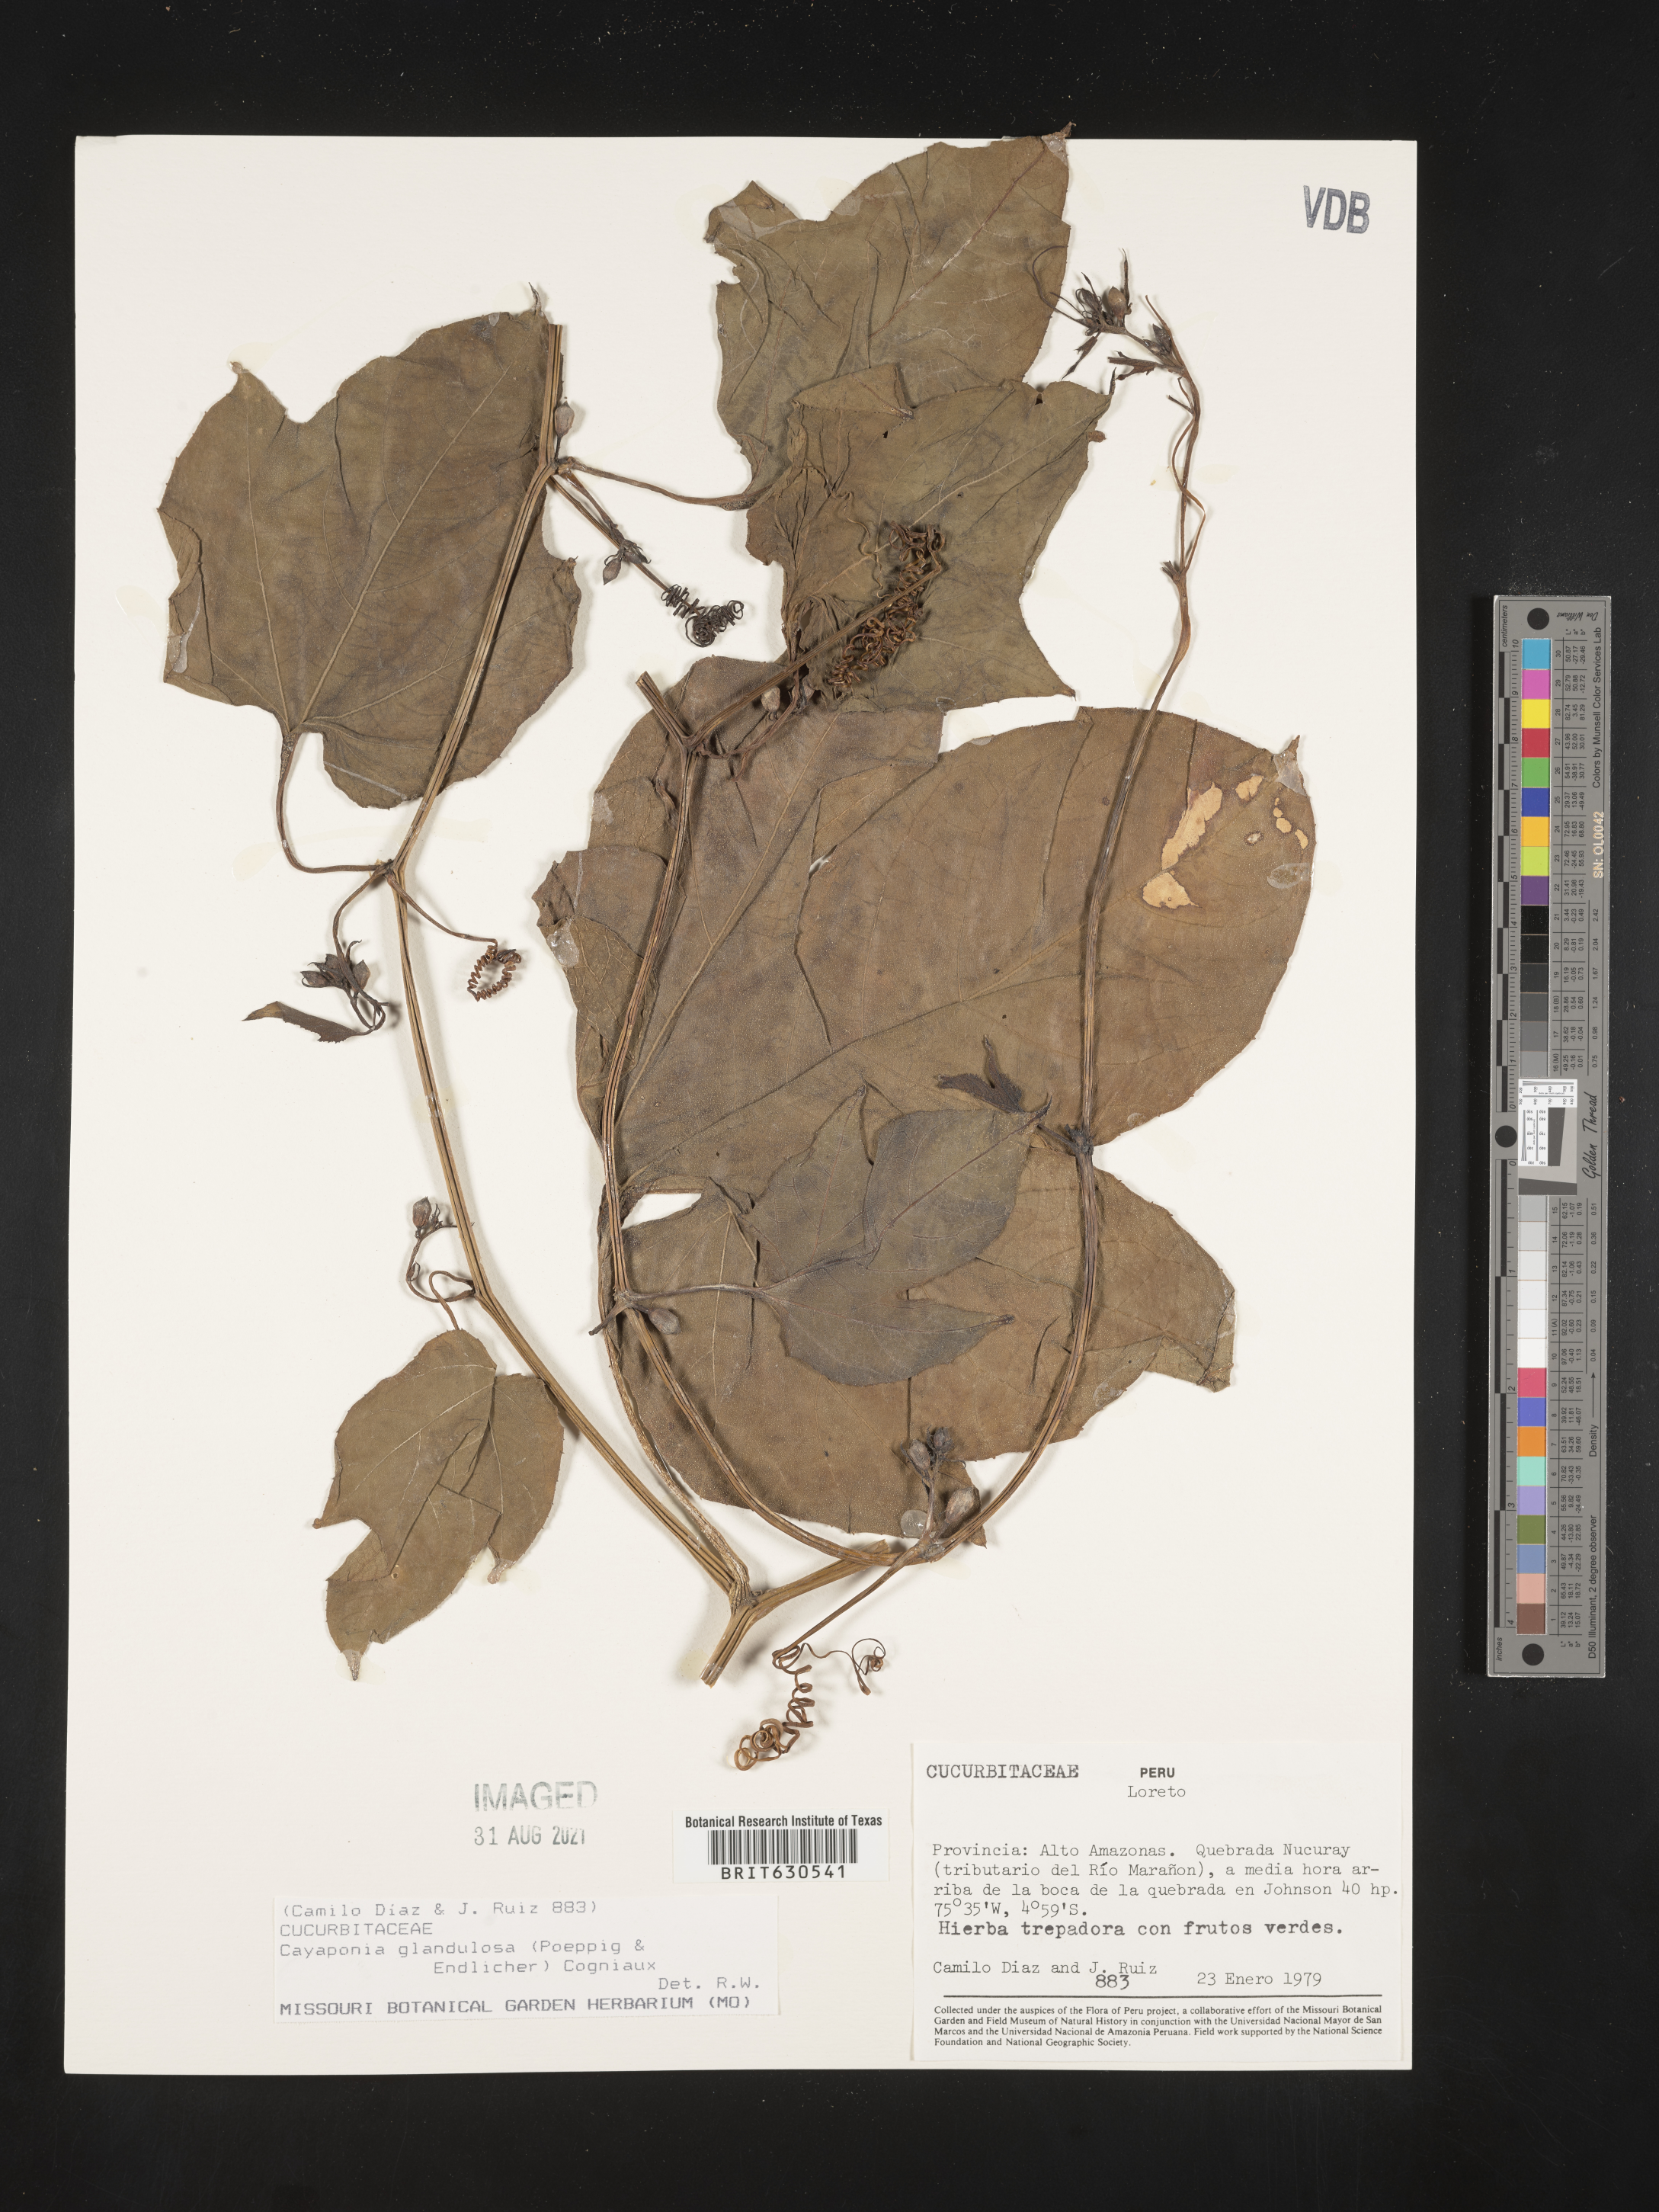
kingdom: Plantae
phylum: Tracheophyta
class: Magnoliopsida
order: Cucurbitales
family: Cucurbitaceae
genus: Cayaponia
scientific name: Cayaponia glandulosa
